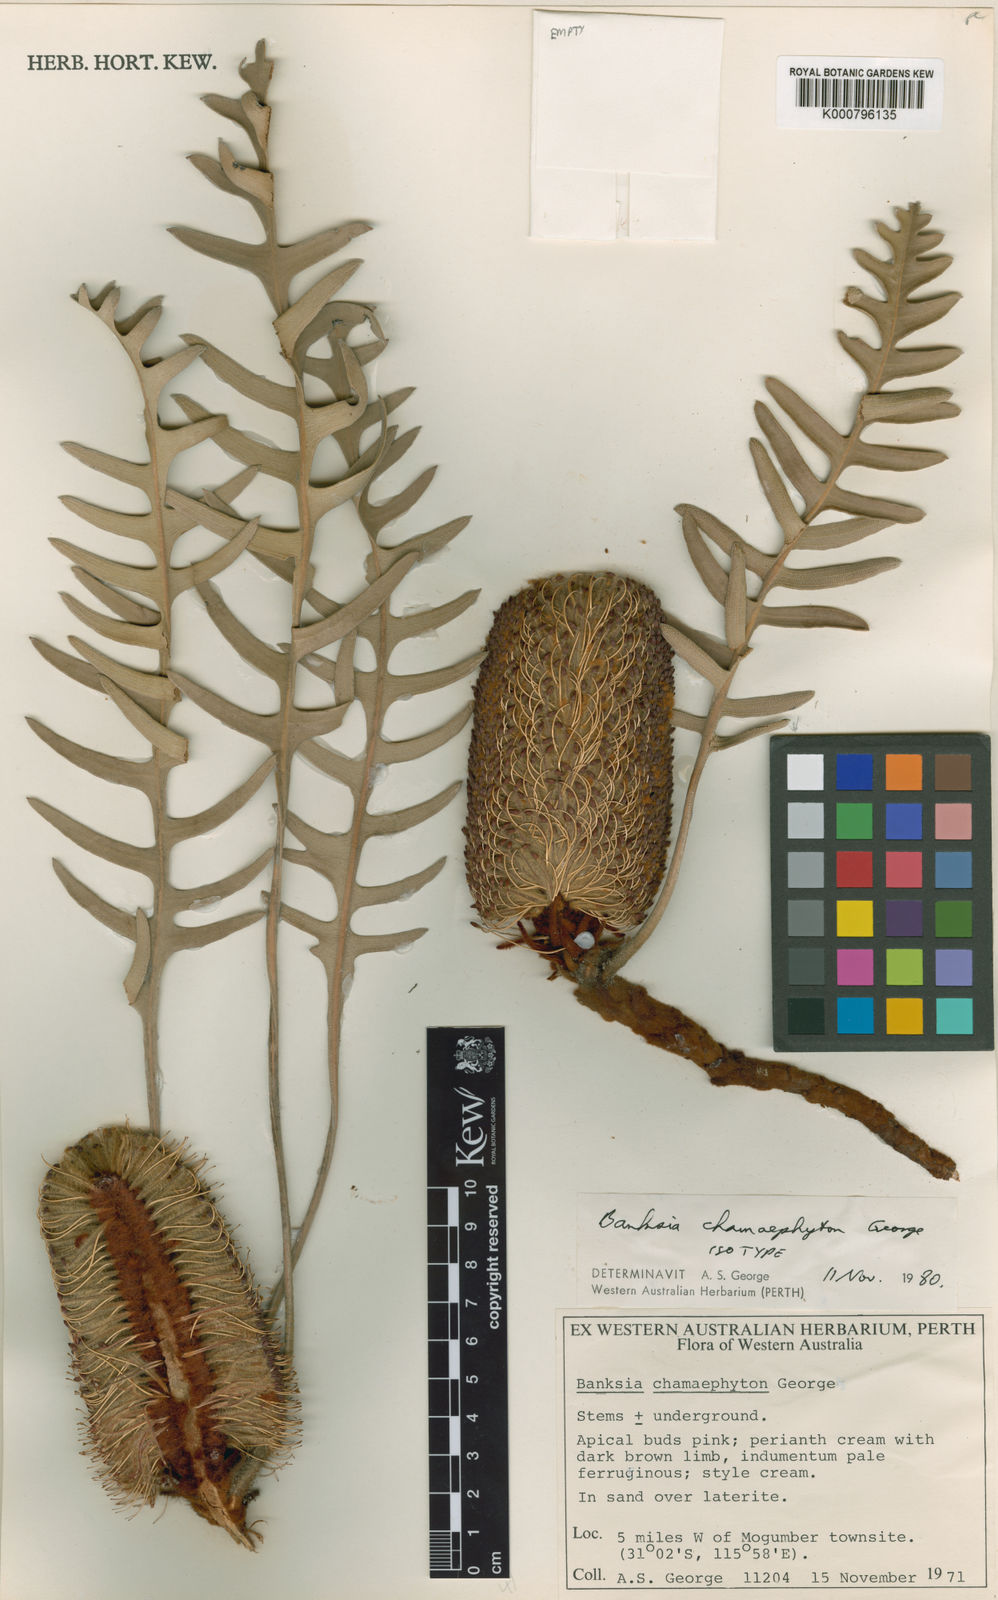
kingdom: Plantae
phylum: Tracheophyta
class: Magnoliopsida
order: Proteales
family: Proteaceae
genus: Banksia
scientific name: Banksia chamaephyton
